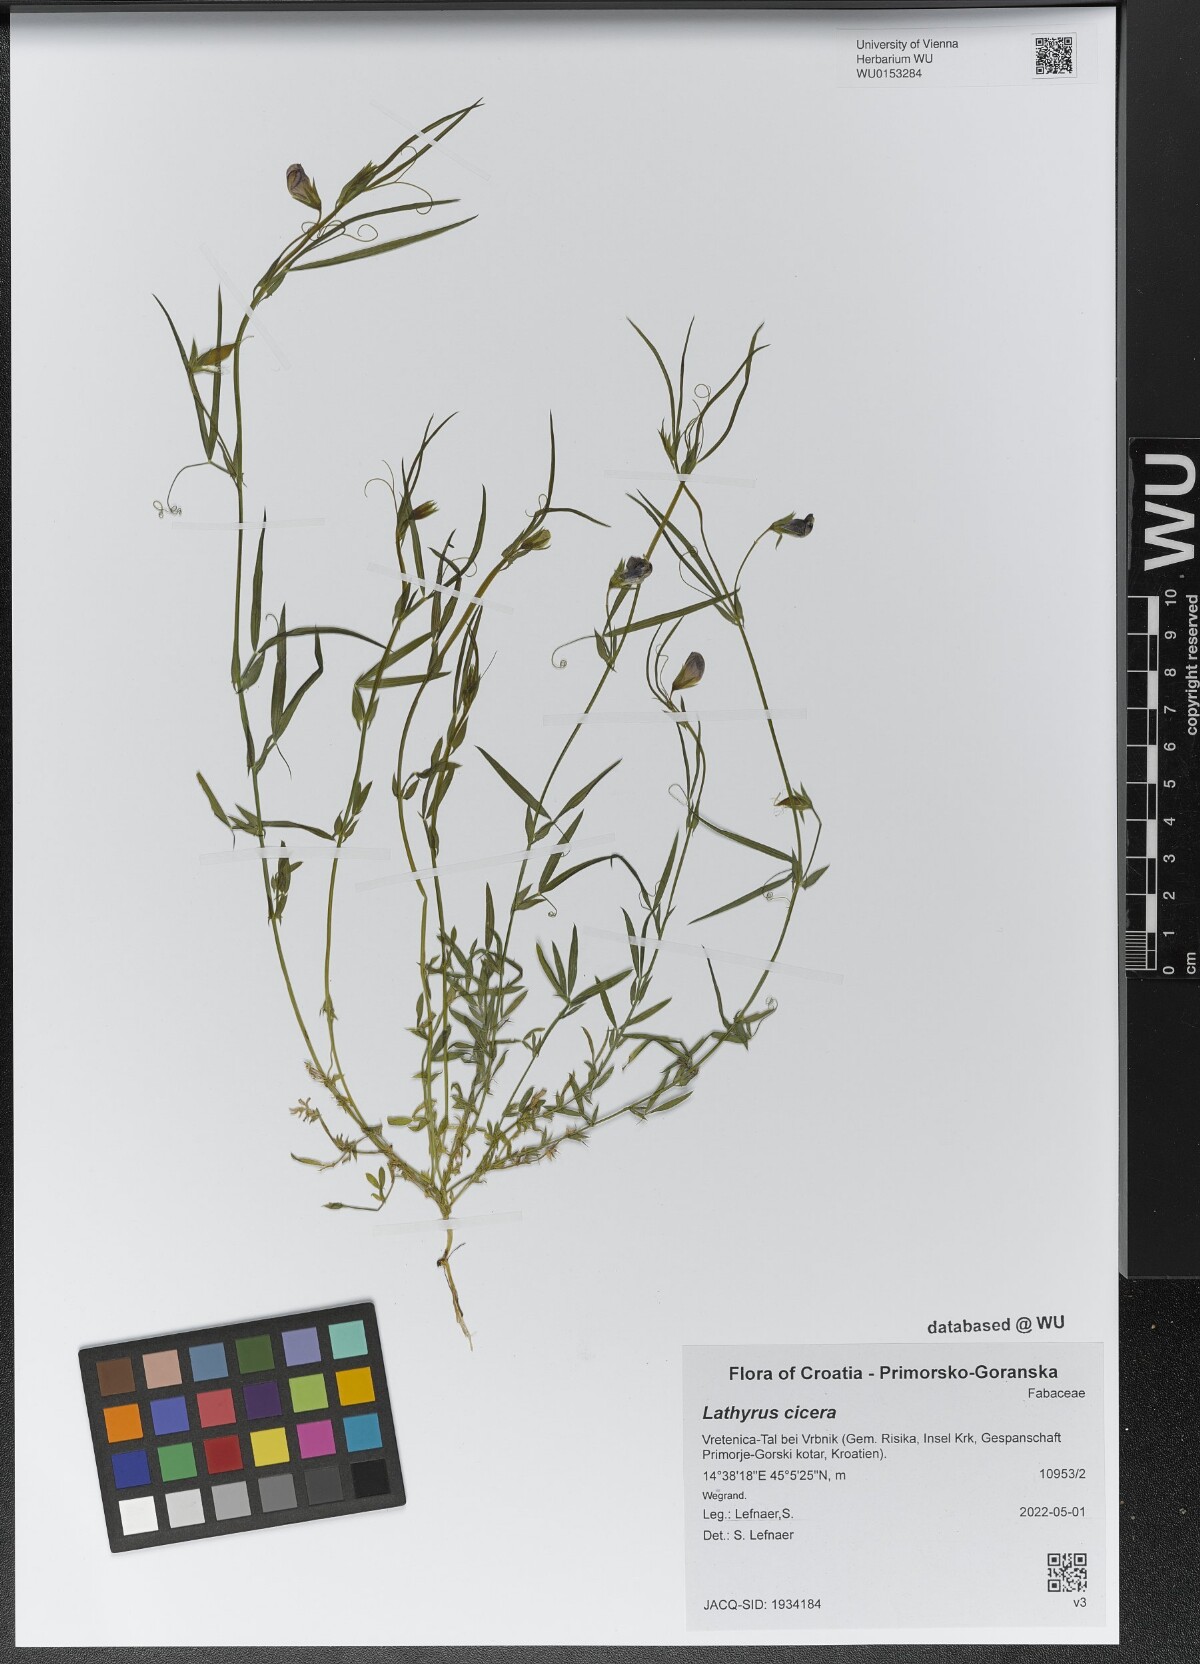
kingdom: Plantae
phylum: Tracheophyta
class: Magnoliopsida
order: Fabales
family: Fabaceae
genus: Lathyrus
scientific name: Lathyrus cicera
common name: Red vetchling
